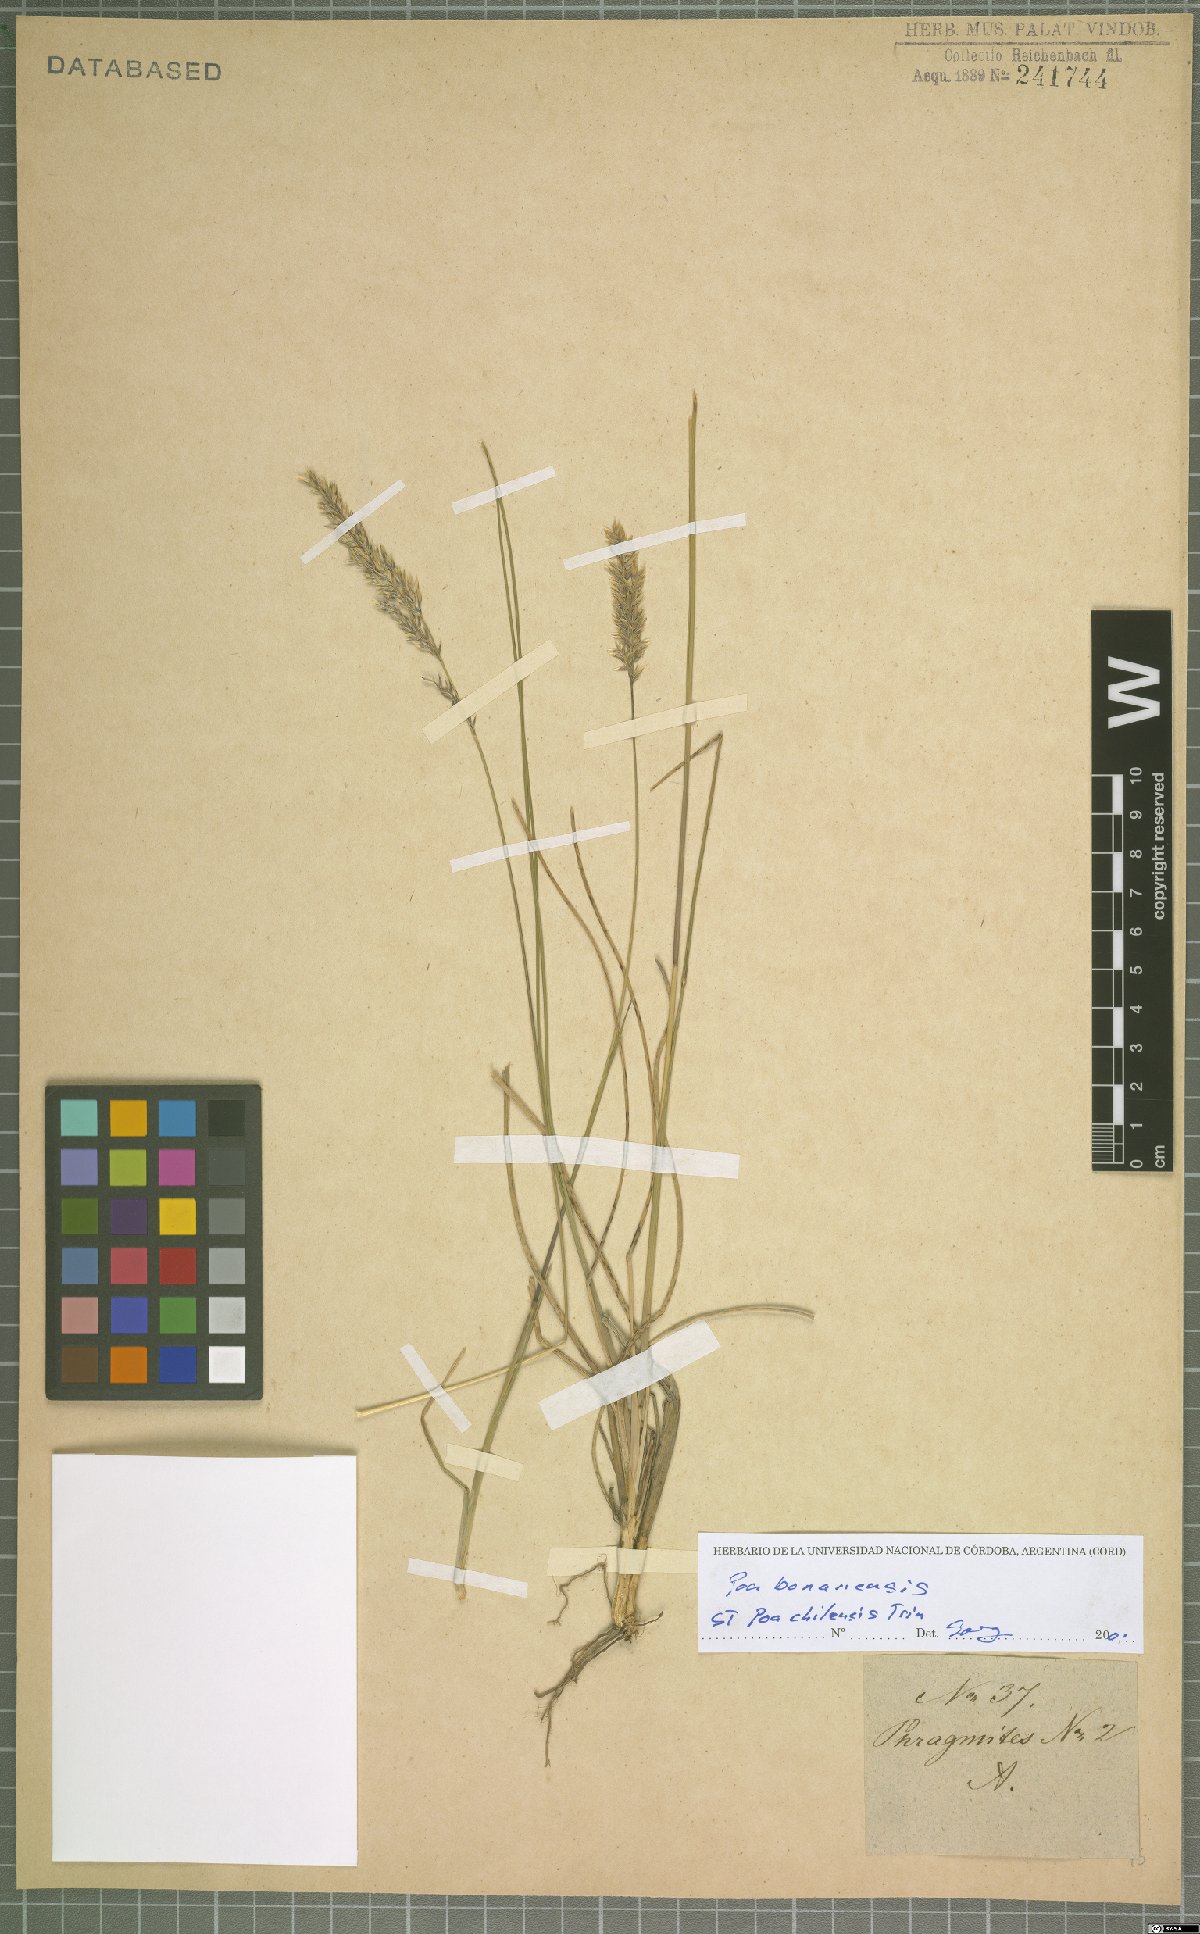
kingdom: Plantae
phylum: Tracheophyta
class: Liliopsida
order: Poales
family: Poaceae
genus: Poa
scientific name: Poa bonariensis
